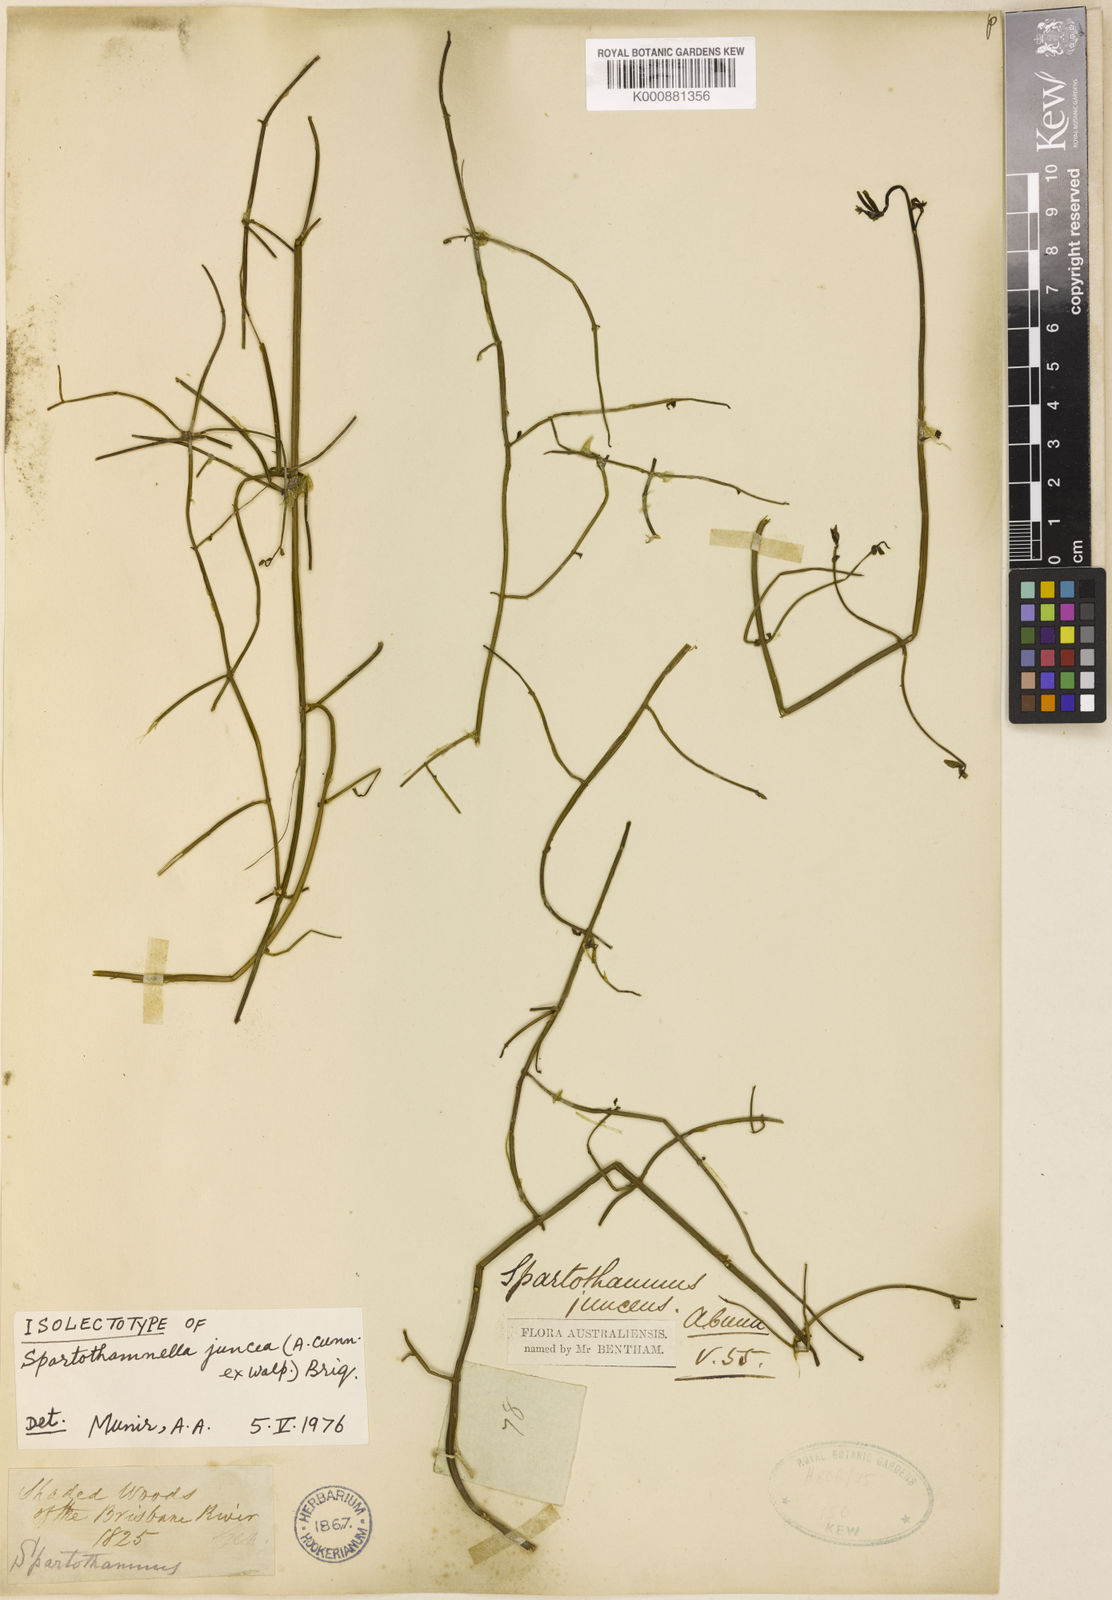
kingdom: Plantae
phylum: Tracheophyta
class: Magnoliopsida
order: Lamiales
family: Lamiaceae
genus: Teucrium
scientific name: Teucrium junceum
